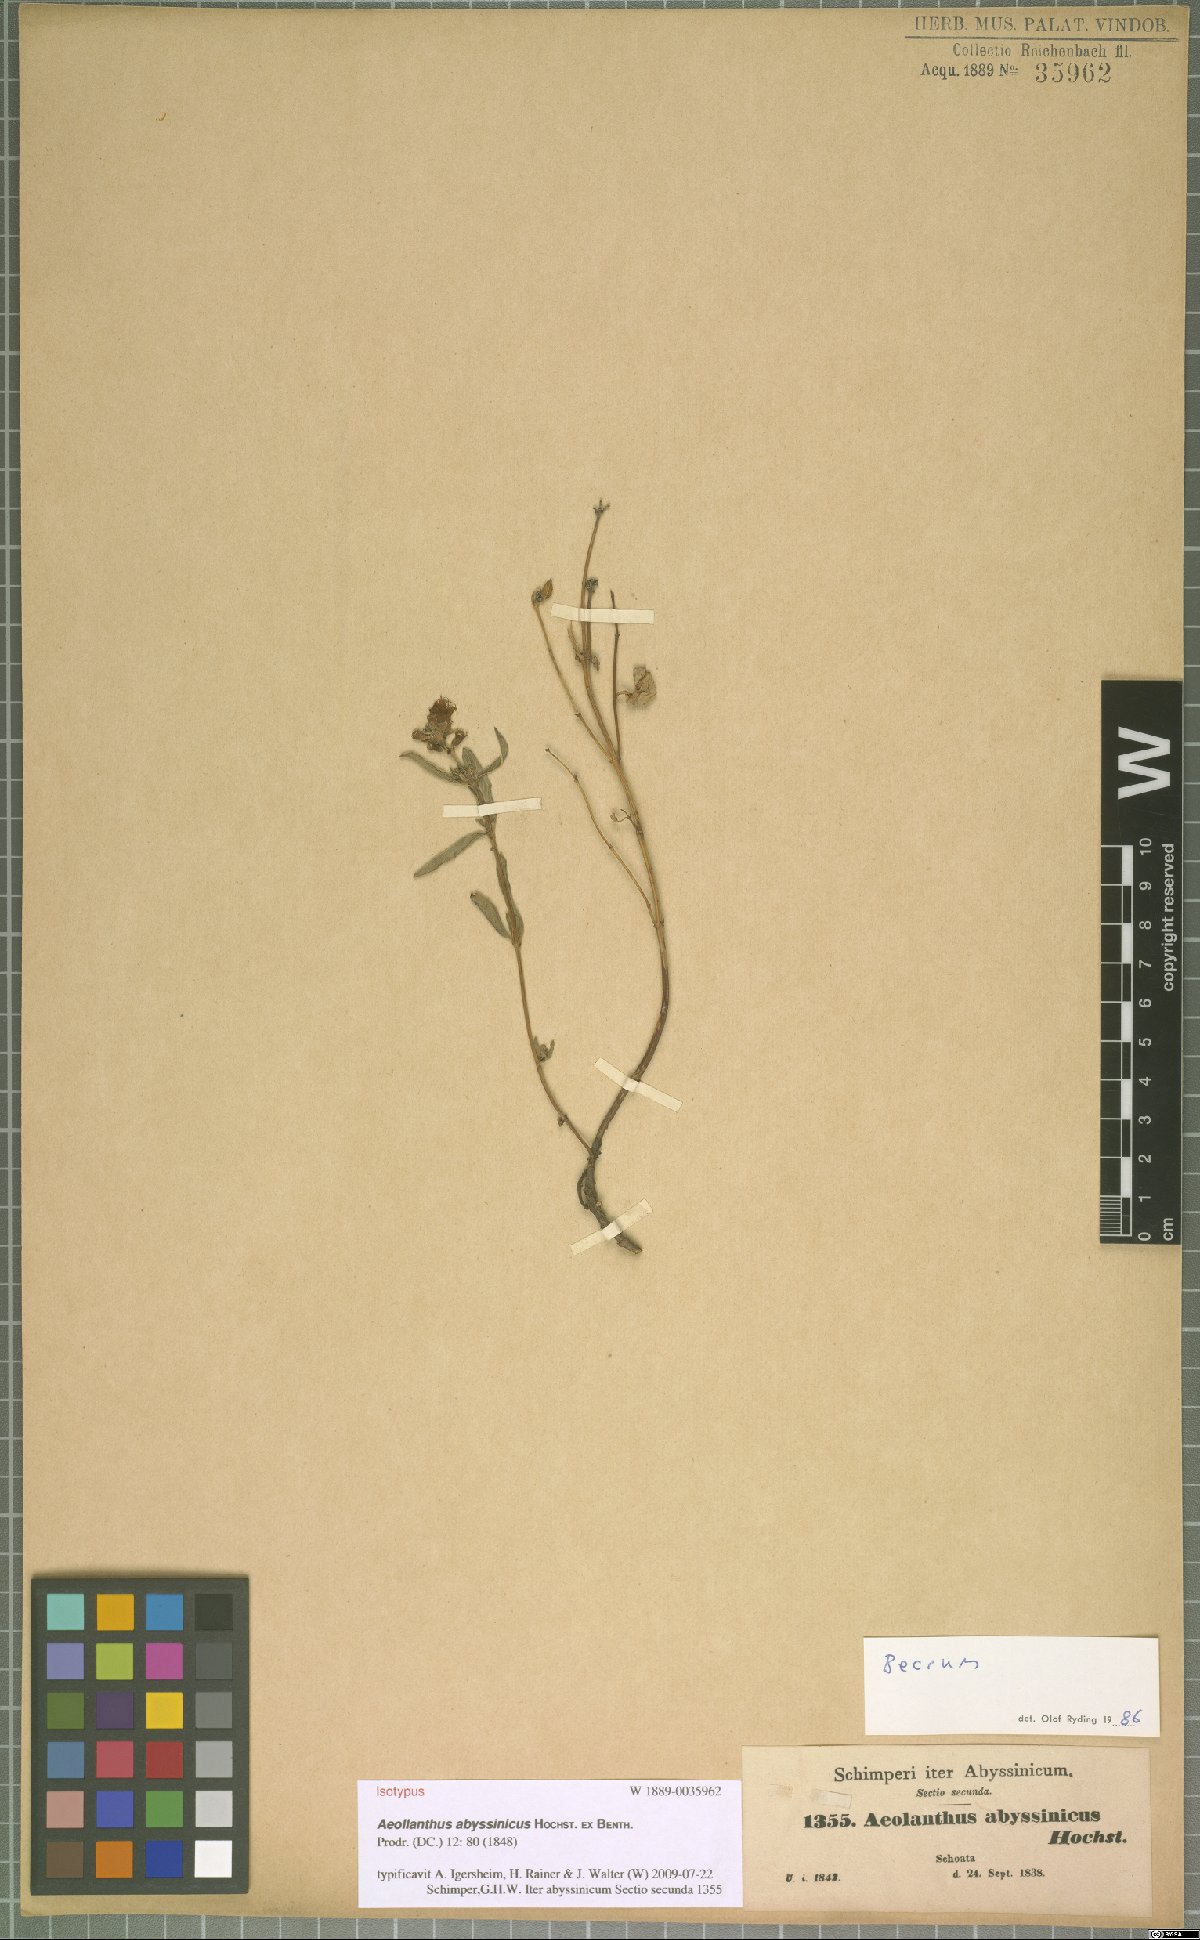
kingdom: Plantae
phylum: Tracheophyta
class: Magnoliopsida
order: Lamiales
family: Lamiaceae
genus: Aeollanthus
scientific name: Aeollanthus abyssinicus
